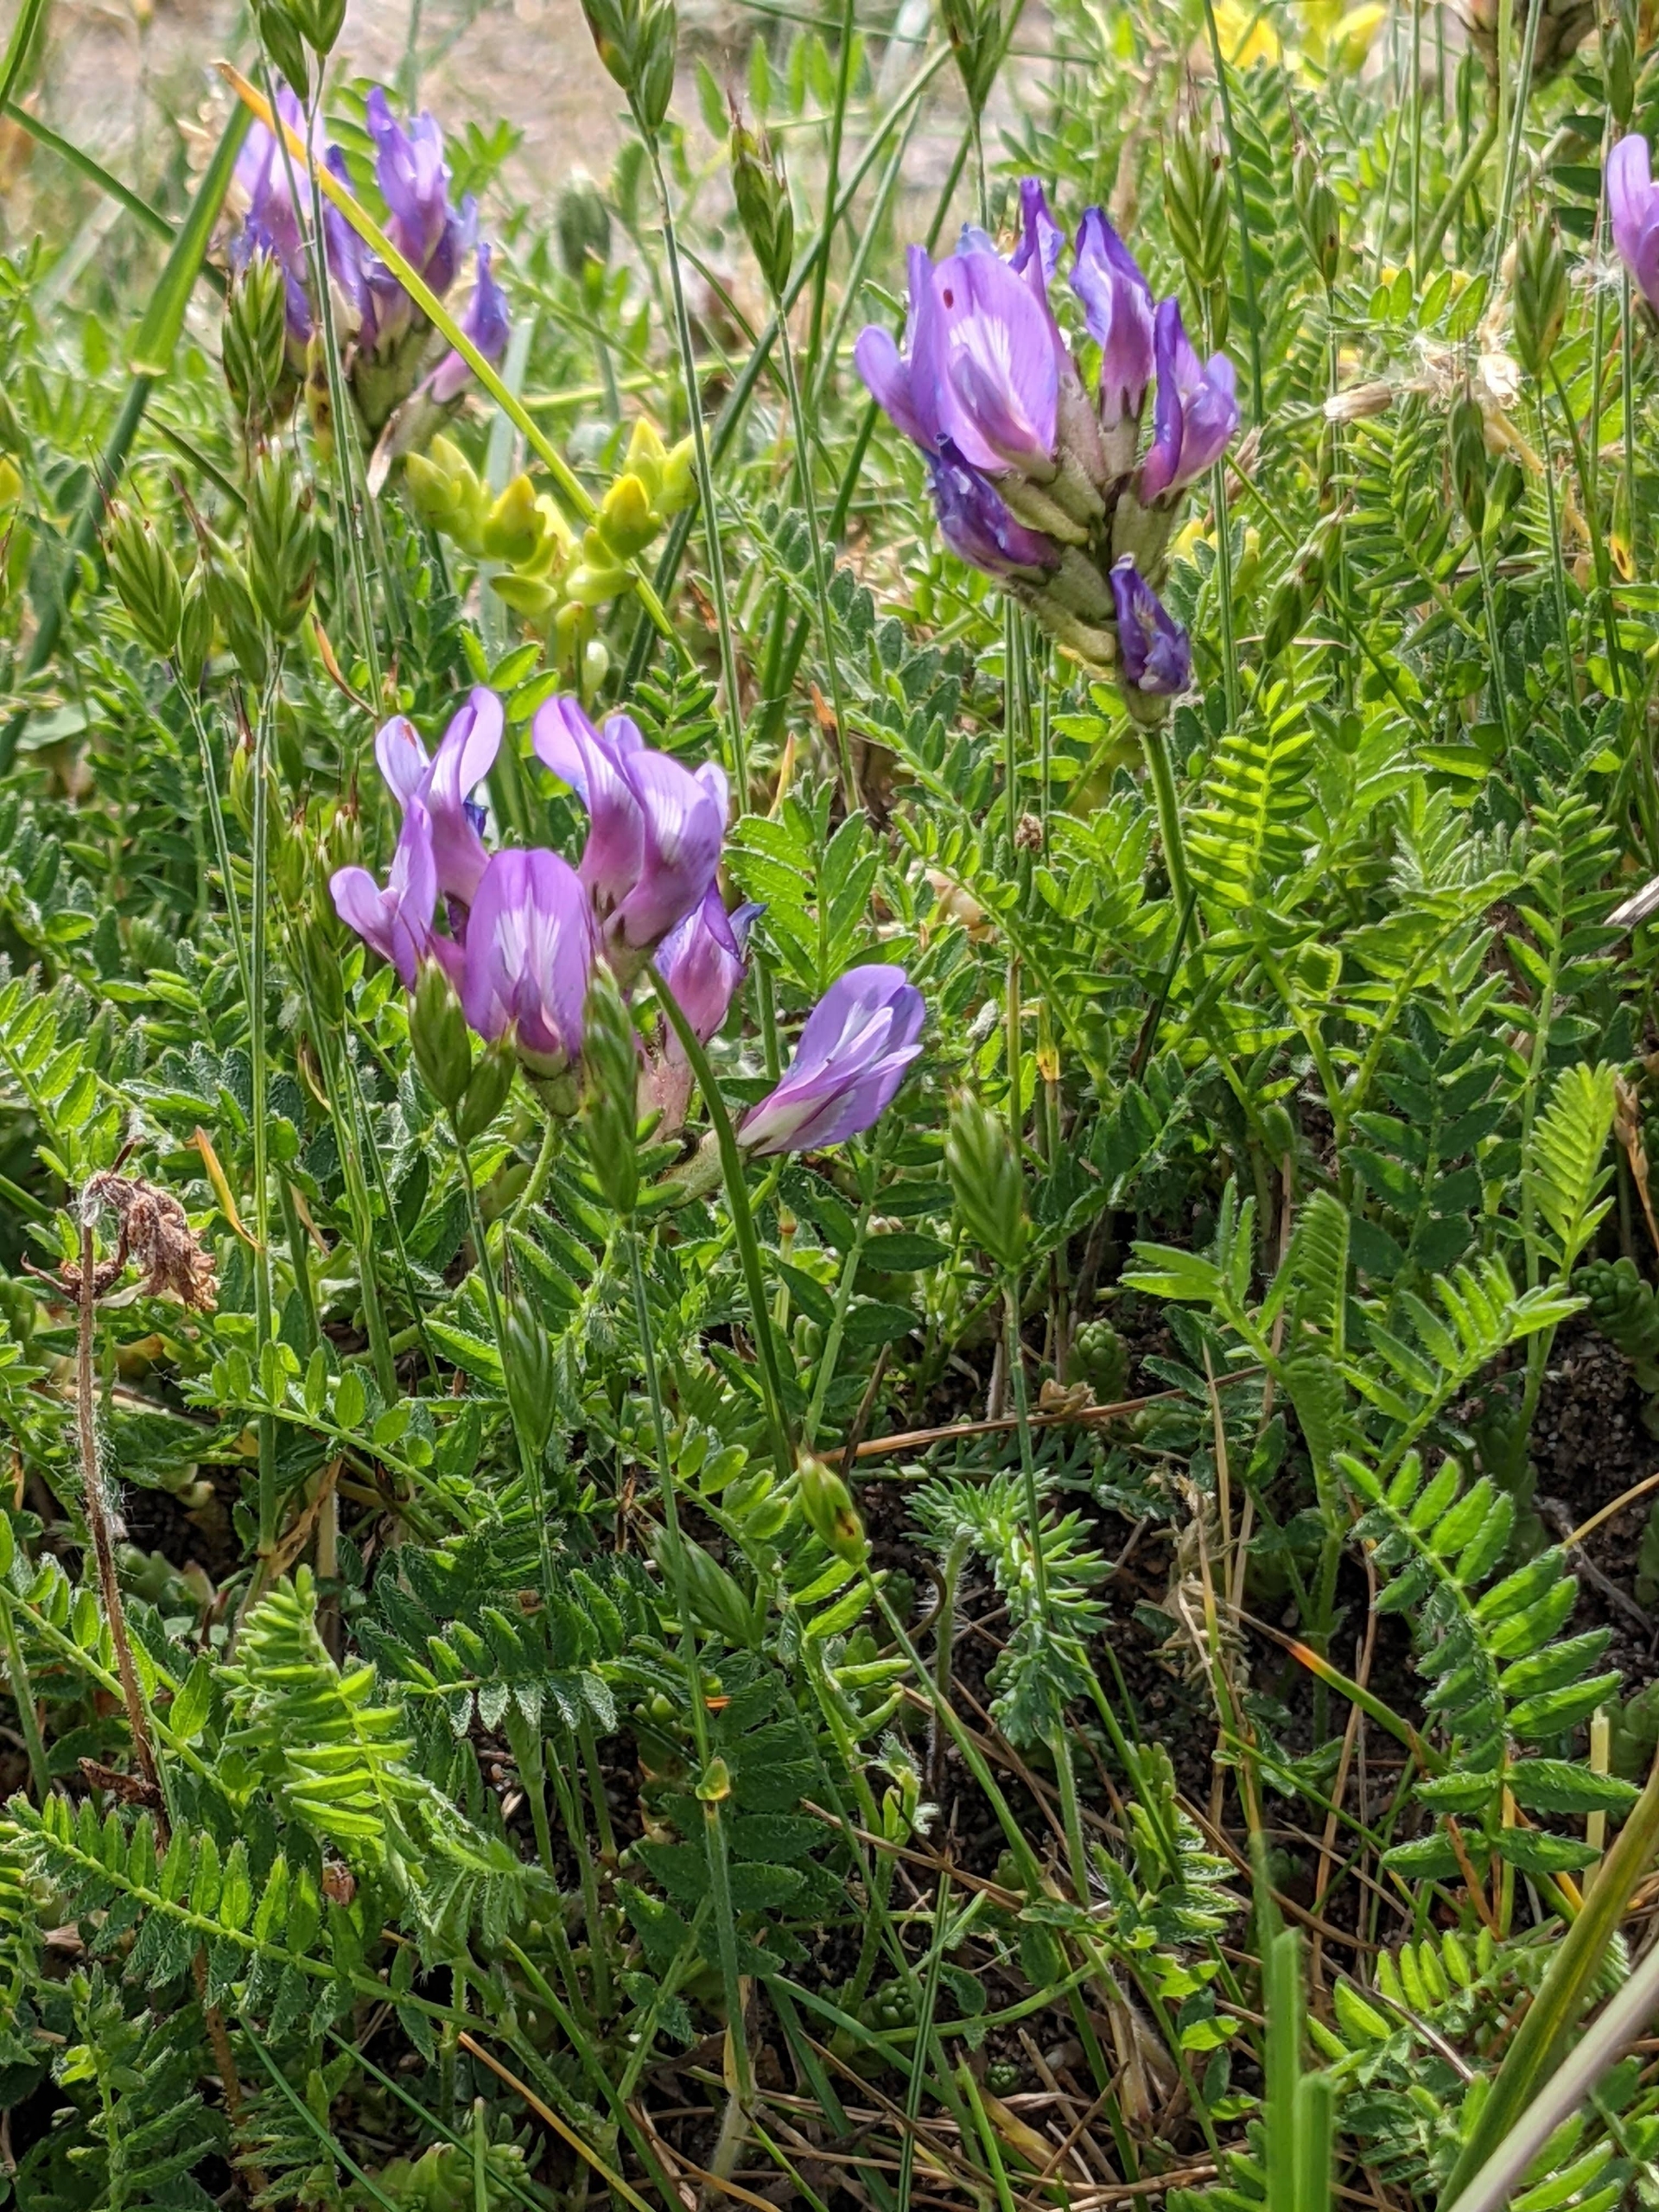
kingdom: Plantae
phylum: Tracheophyta
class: Magnoliopsida
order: Fabales
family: Fabaceae
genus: Astragalus
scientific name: Astragalus danicus
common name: Dansk astragel
